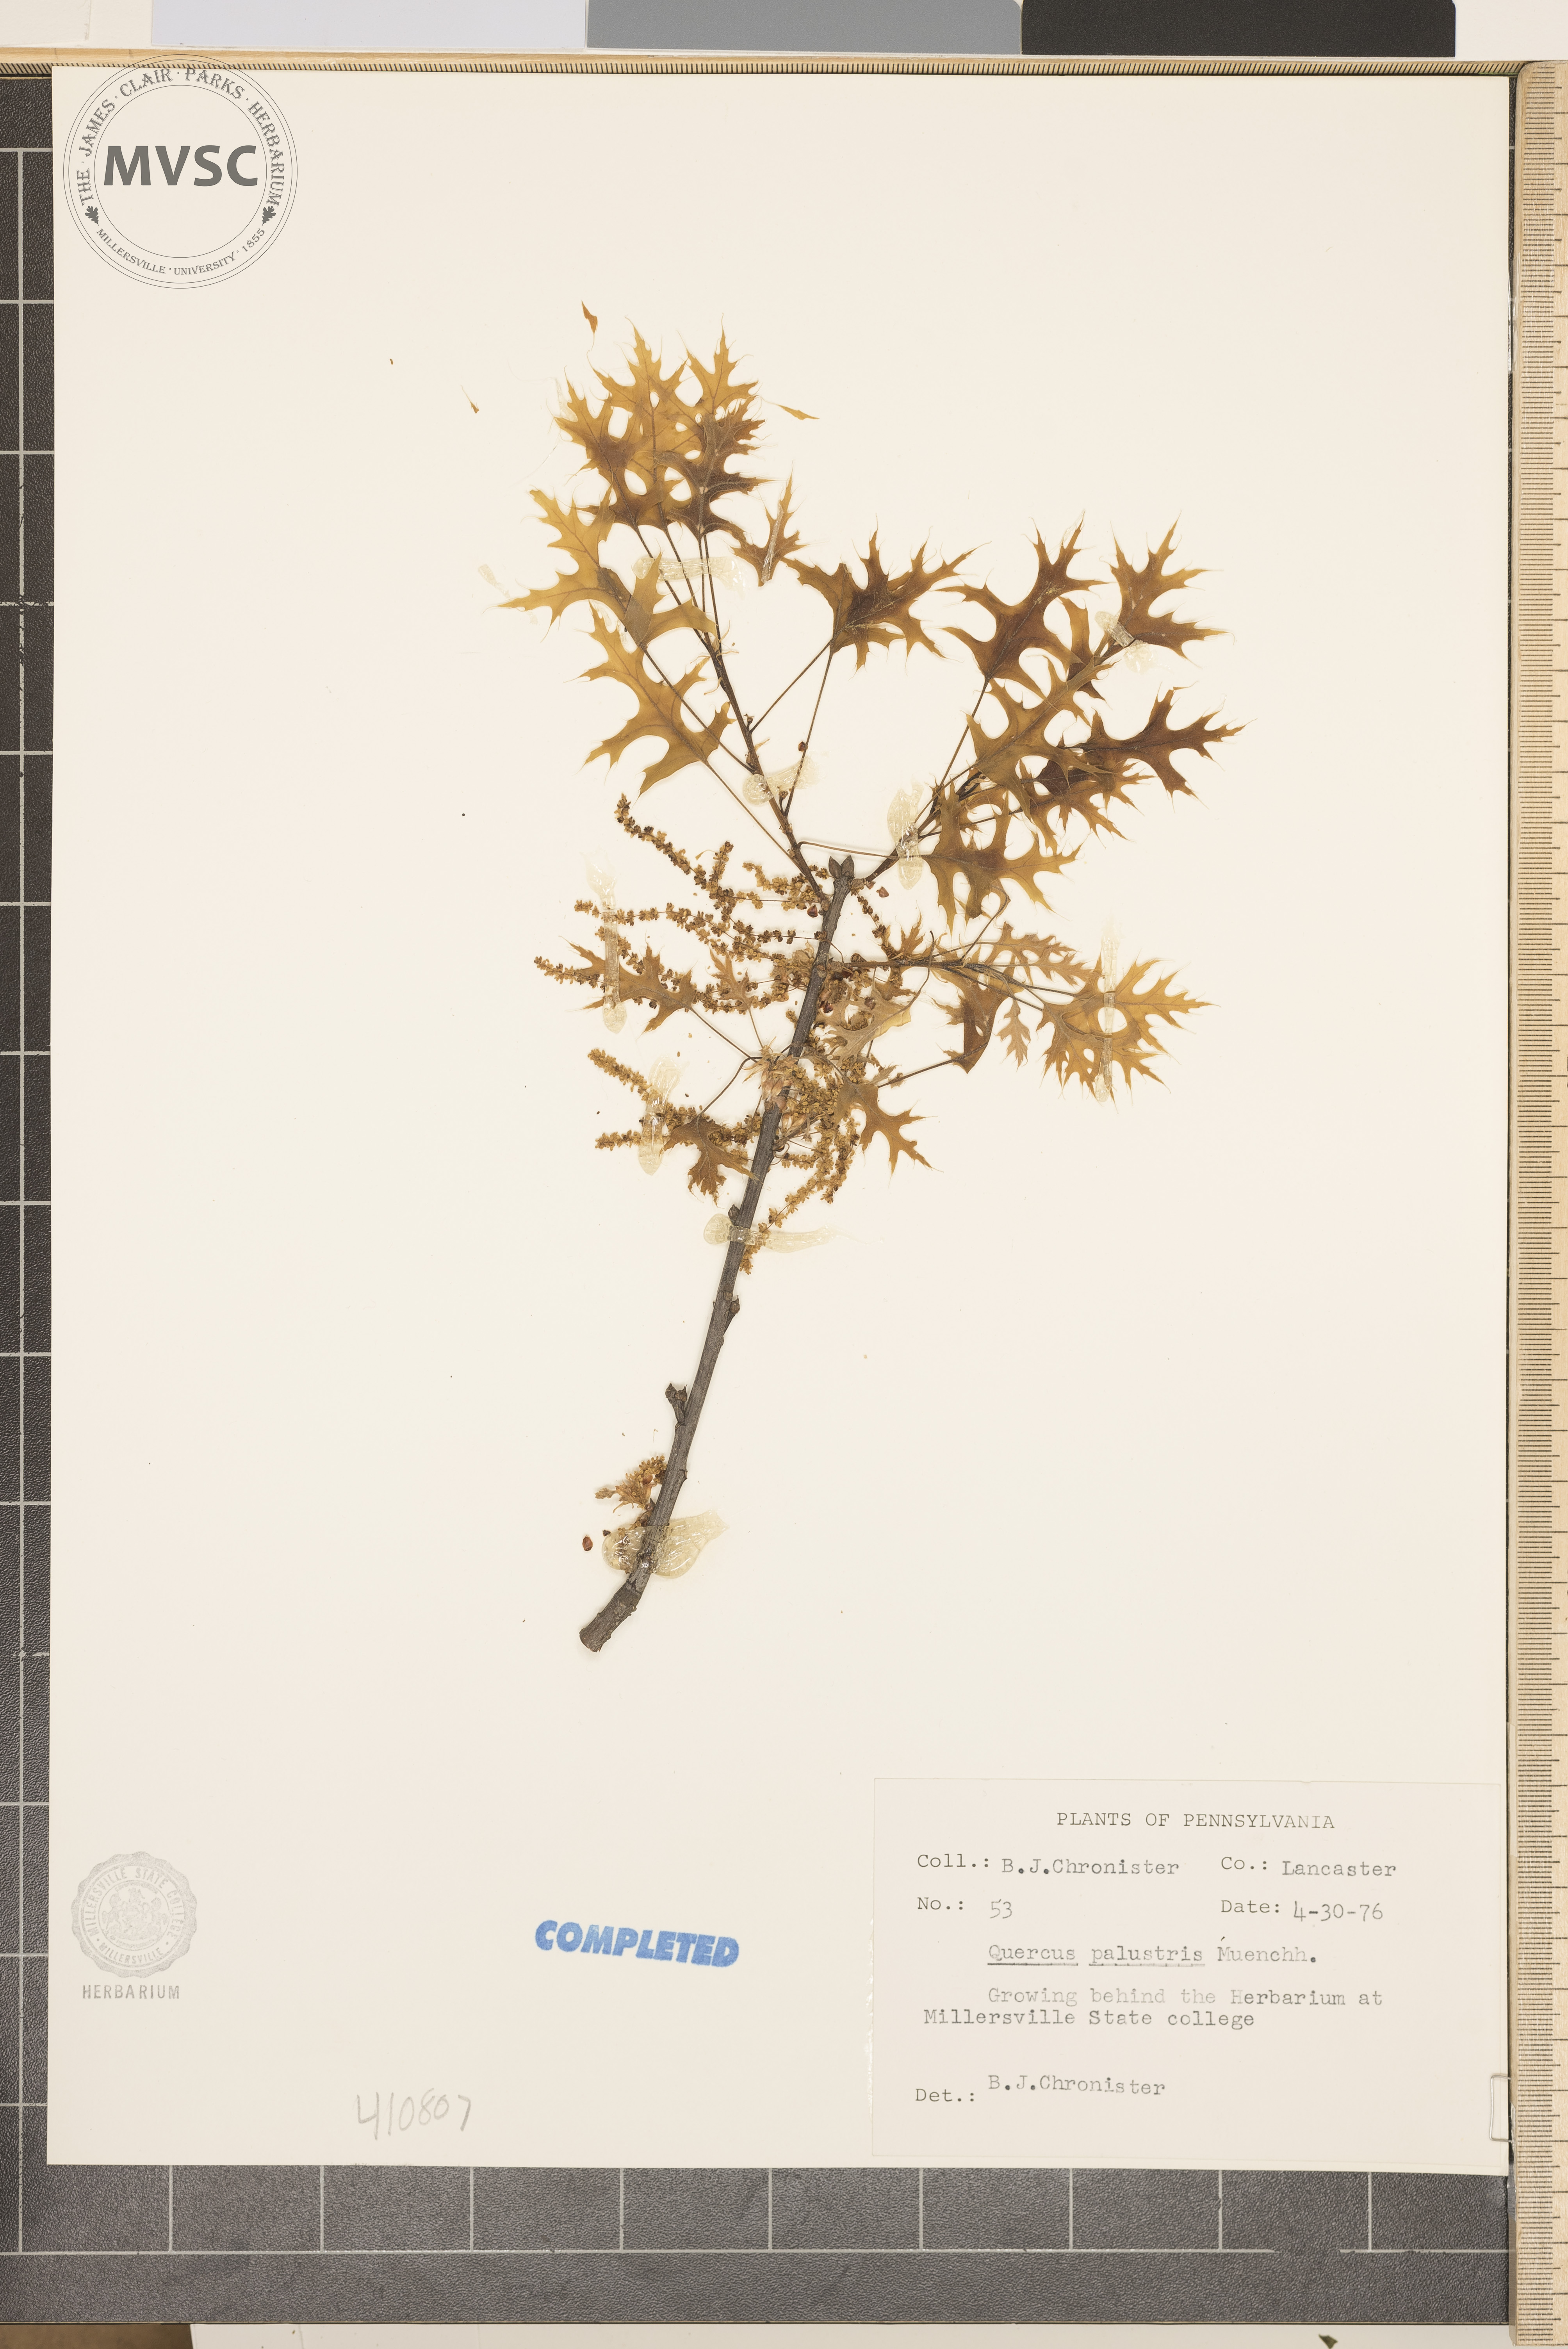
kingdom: Plantae
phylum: Tracheophyta
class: Magnoliopsida
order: Fagales
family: Fagaceae
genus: Quercus
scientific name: Quercus palustris
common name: Pin oak
